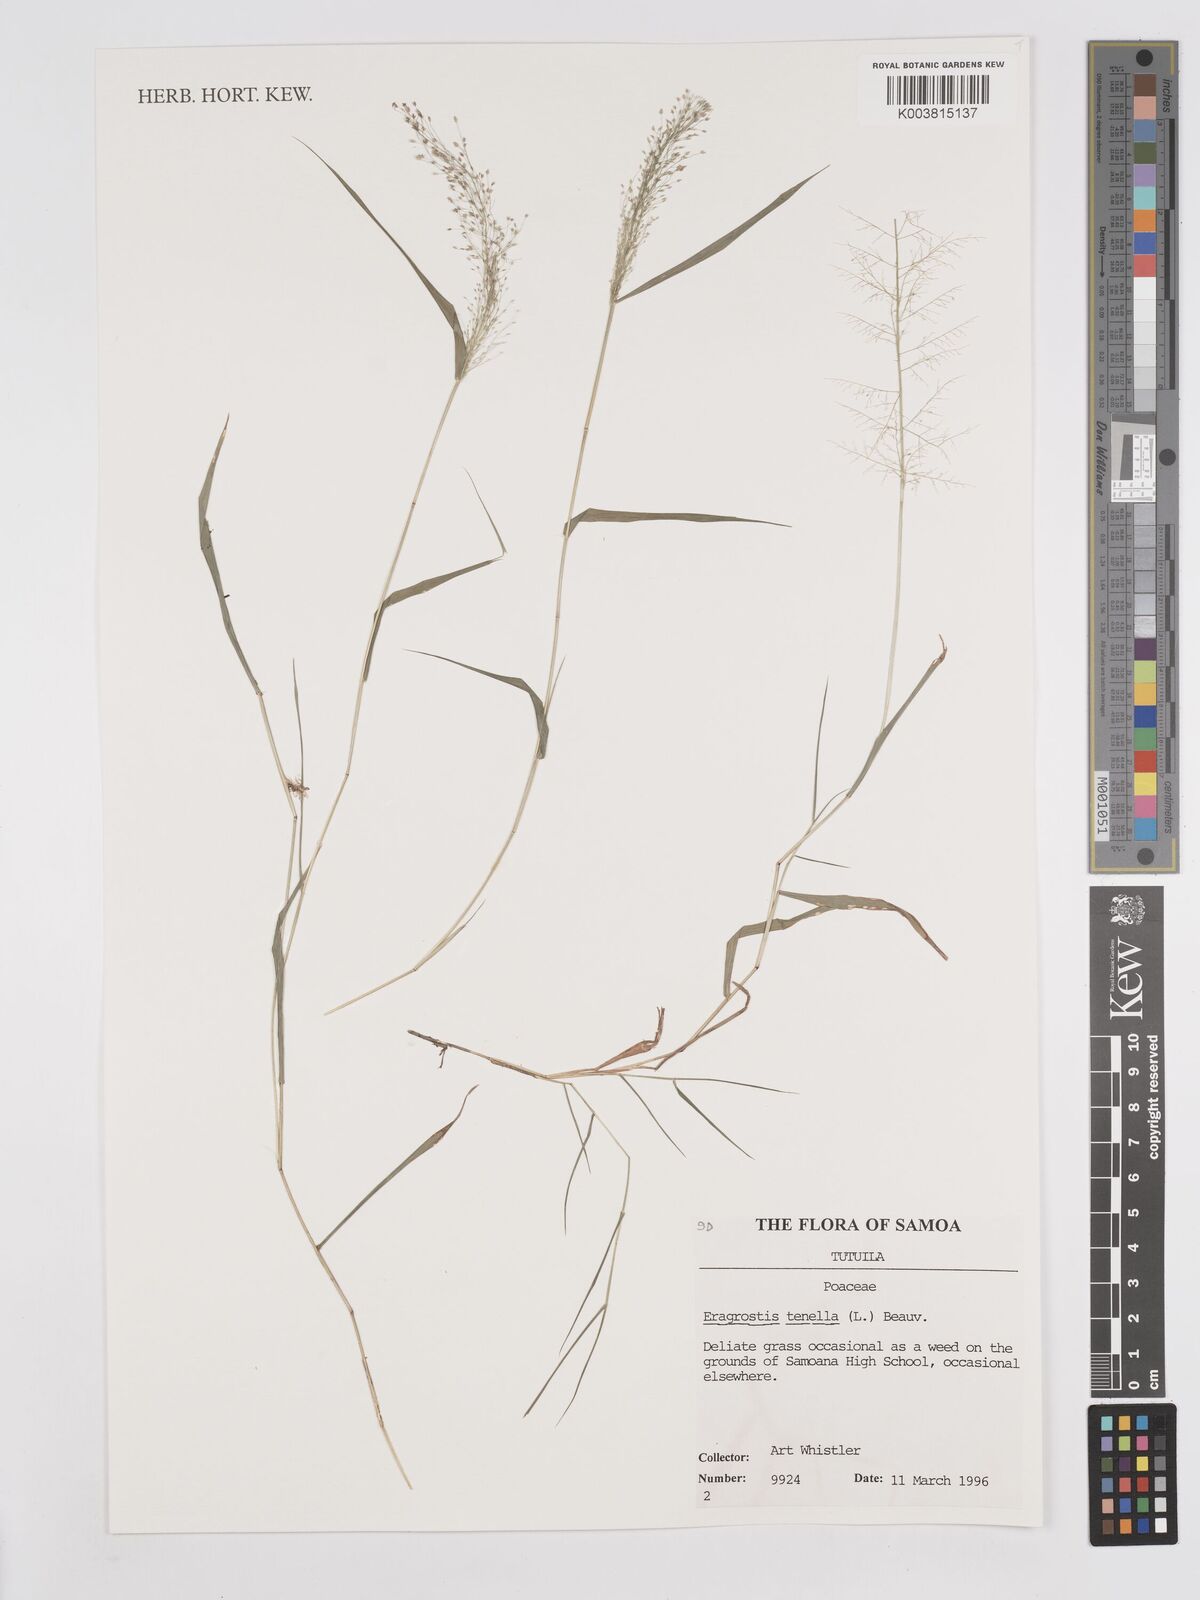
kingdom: Plantae
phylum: Tracheophyta
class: Liliopsida
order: Poales
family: Poaceae
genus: Eragrostis
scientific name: Eragrostis tenella
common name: Japanese lovegrass
